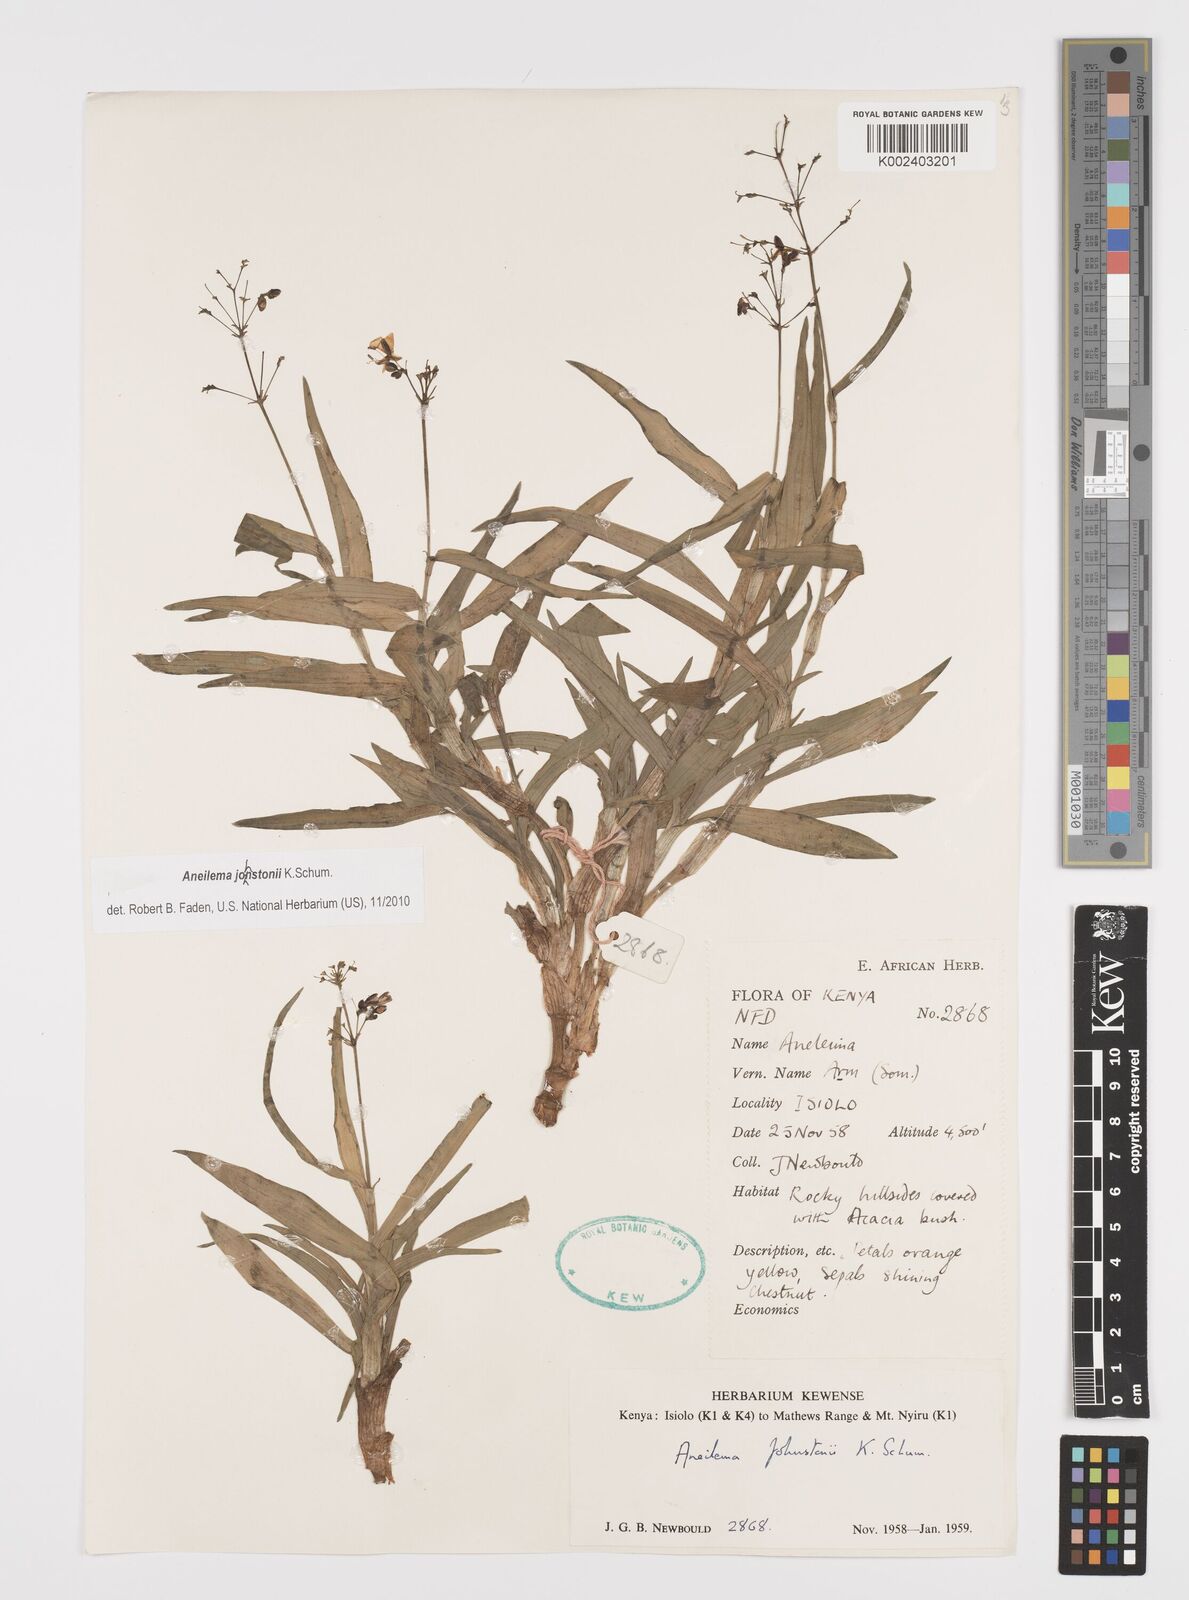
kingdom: Plantae
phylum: Tracheophyta
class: Liliopsida
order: Commelinales
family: Commelinaceae
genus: Aneilema
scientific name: Aneilema johnstonii
